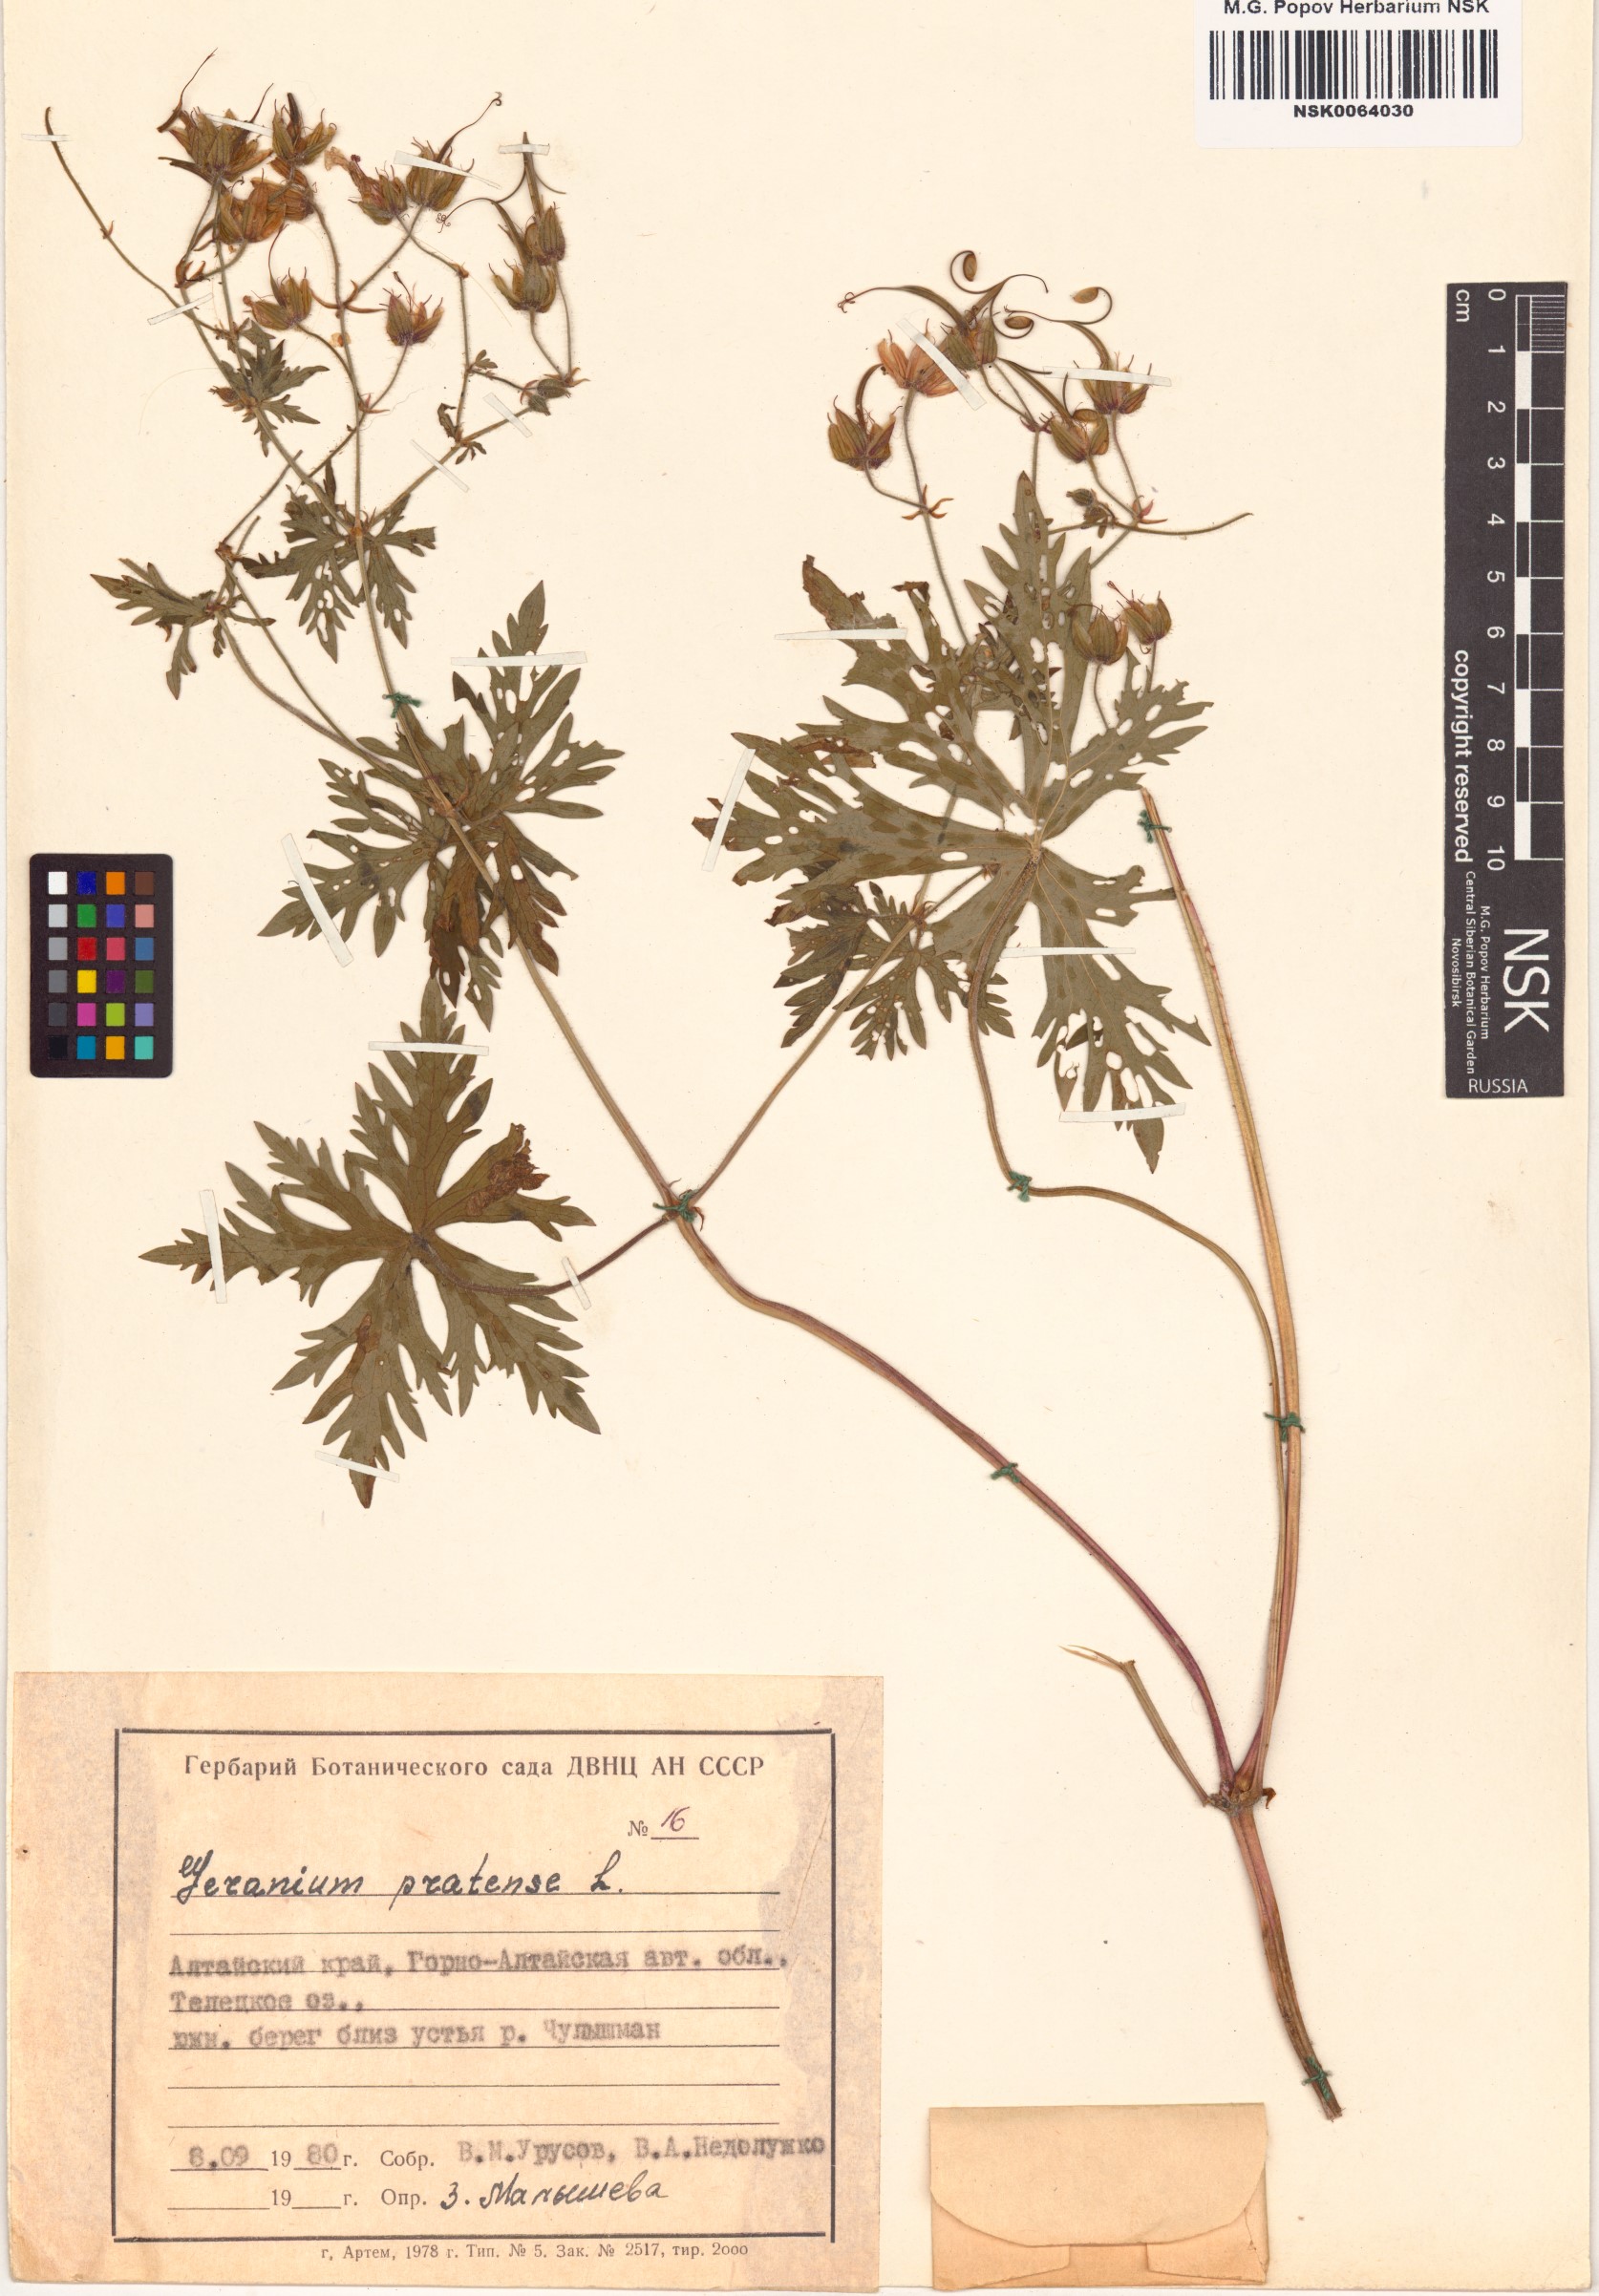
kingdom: Plantae
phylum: Tracheophyta
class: Magnoliopsida
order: Geraniales
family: Geraniaceae
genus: Geranium
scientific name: Geranium pratense
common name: Meadow crane's-bill
